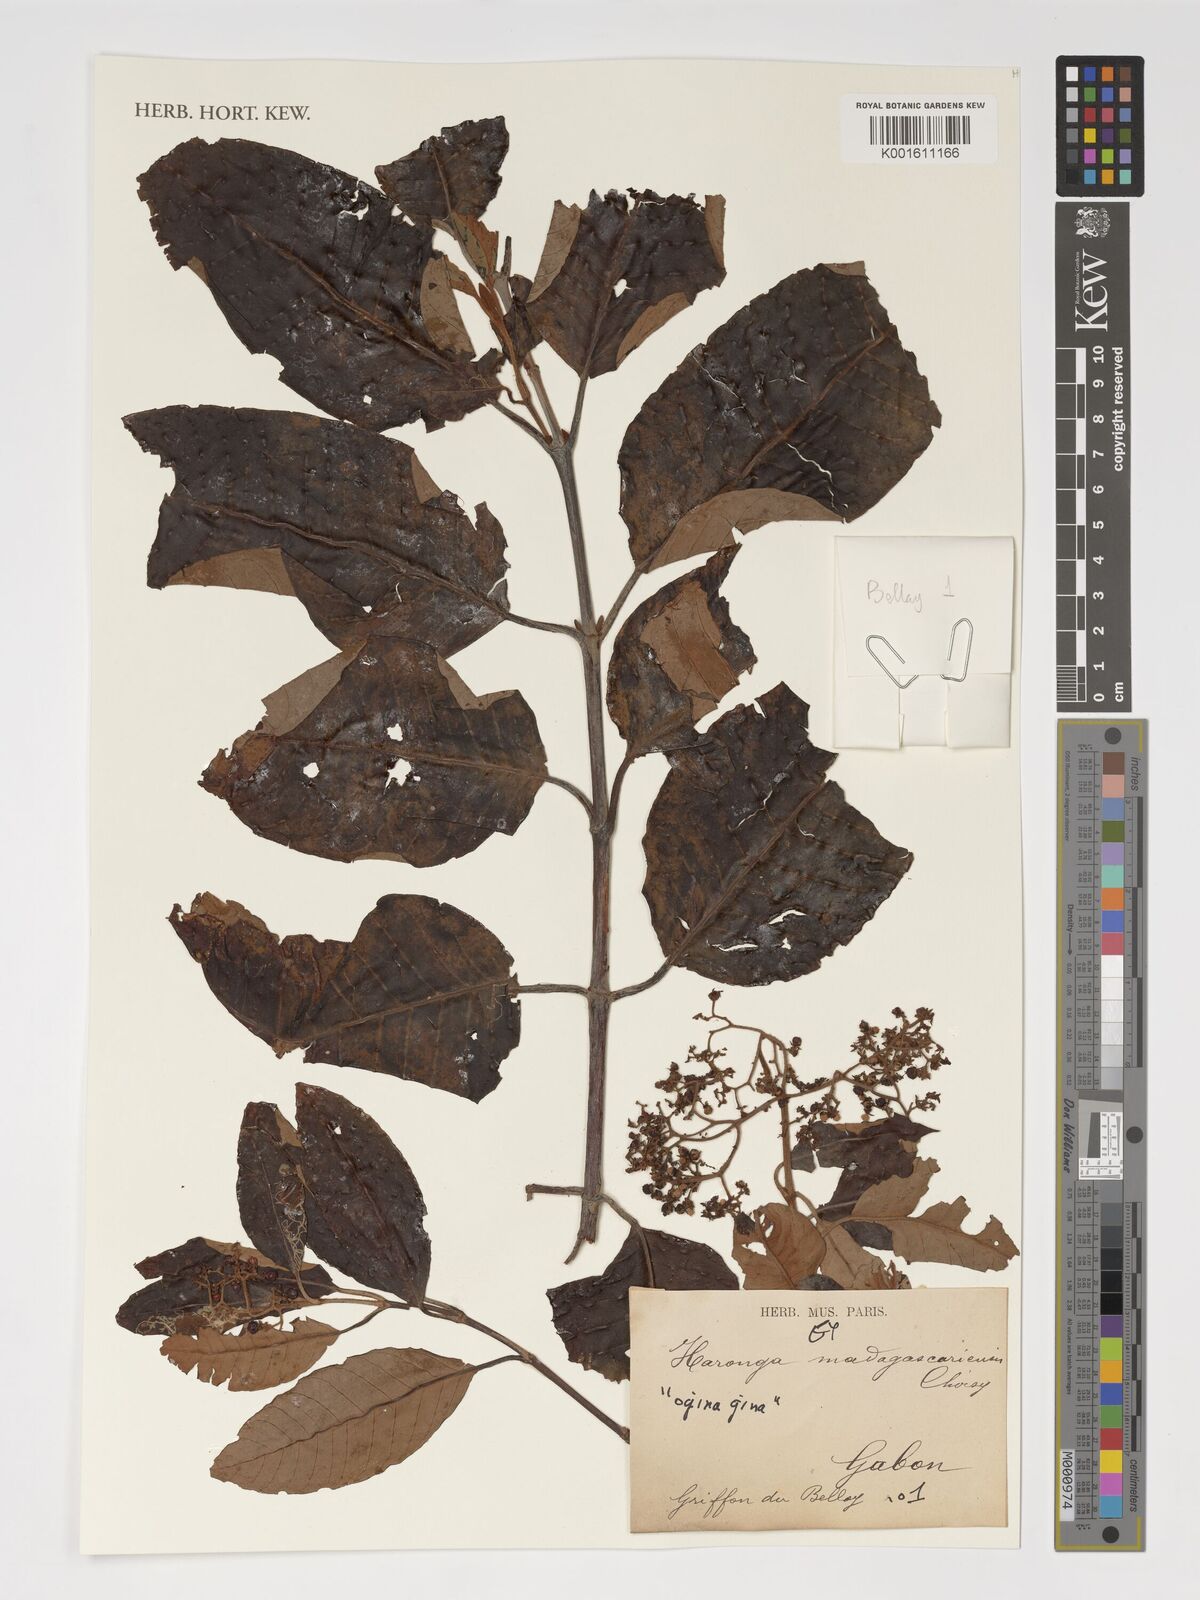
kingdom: Plantae
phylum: Tracheophyta
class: Magnoliopsida
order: Malpighiales
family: Hypericaceae
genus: Harungana
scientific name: Harungana madagascariensis
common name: Orange milktree
